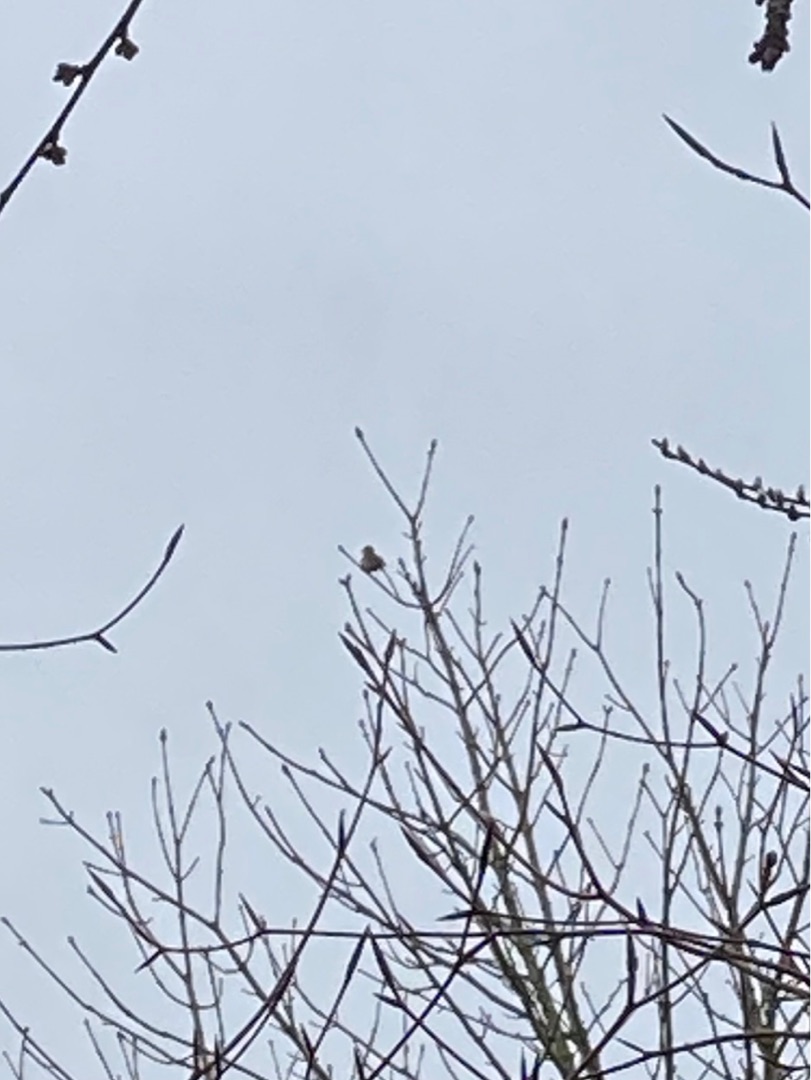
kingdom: Animalia
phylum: Chordata
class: Aves
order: Passeriformes
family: Turdidae
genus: Turdus
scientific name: Turdus philomelos
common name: Sangdrossel
